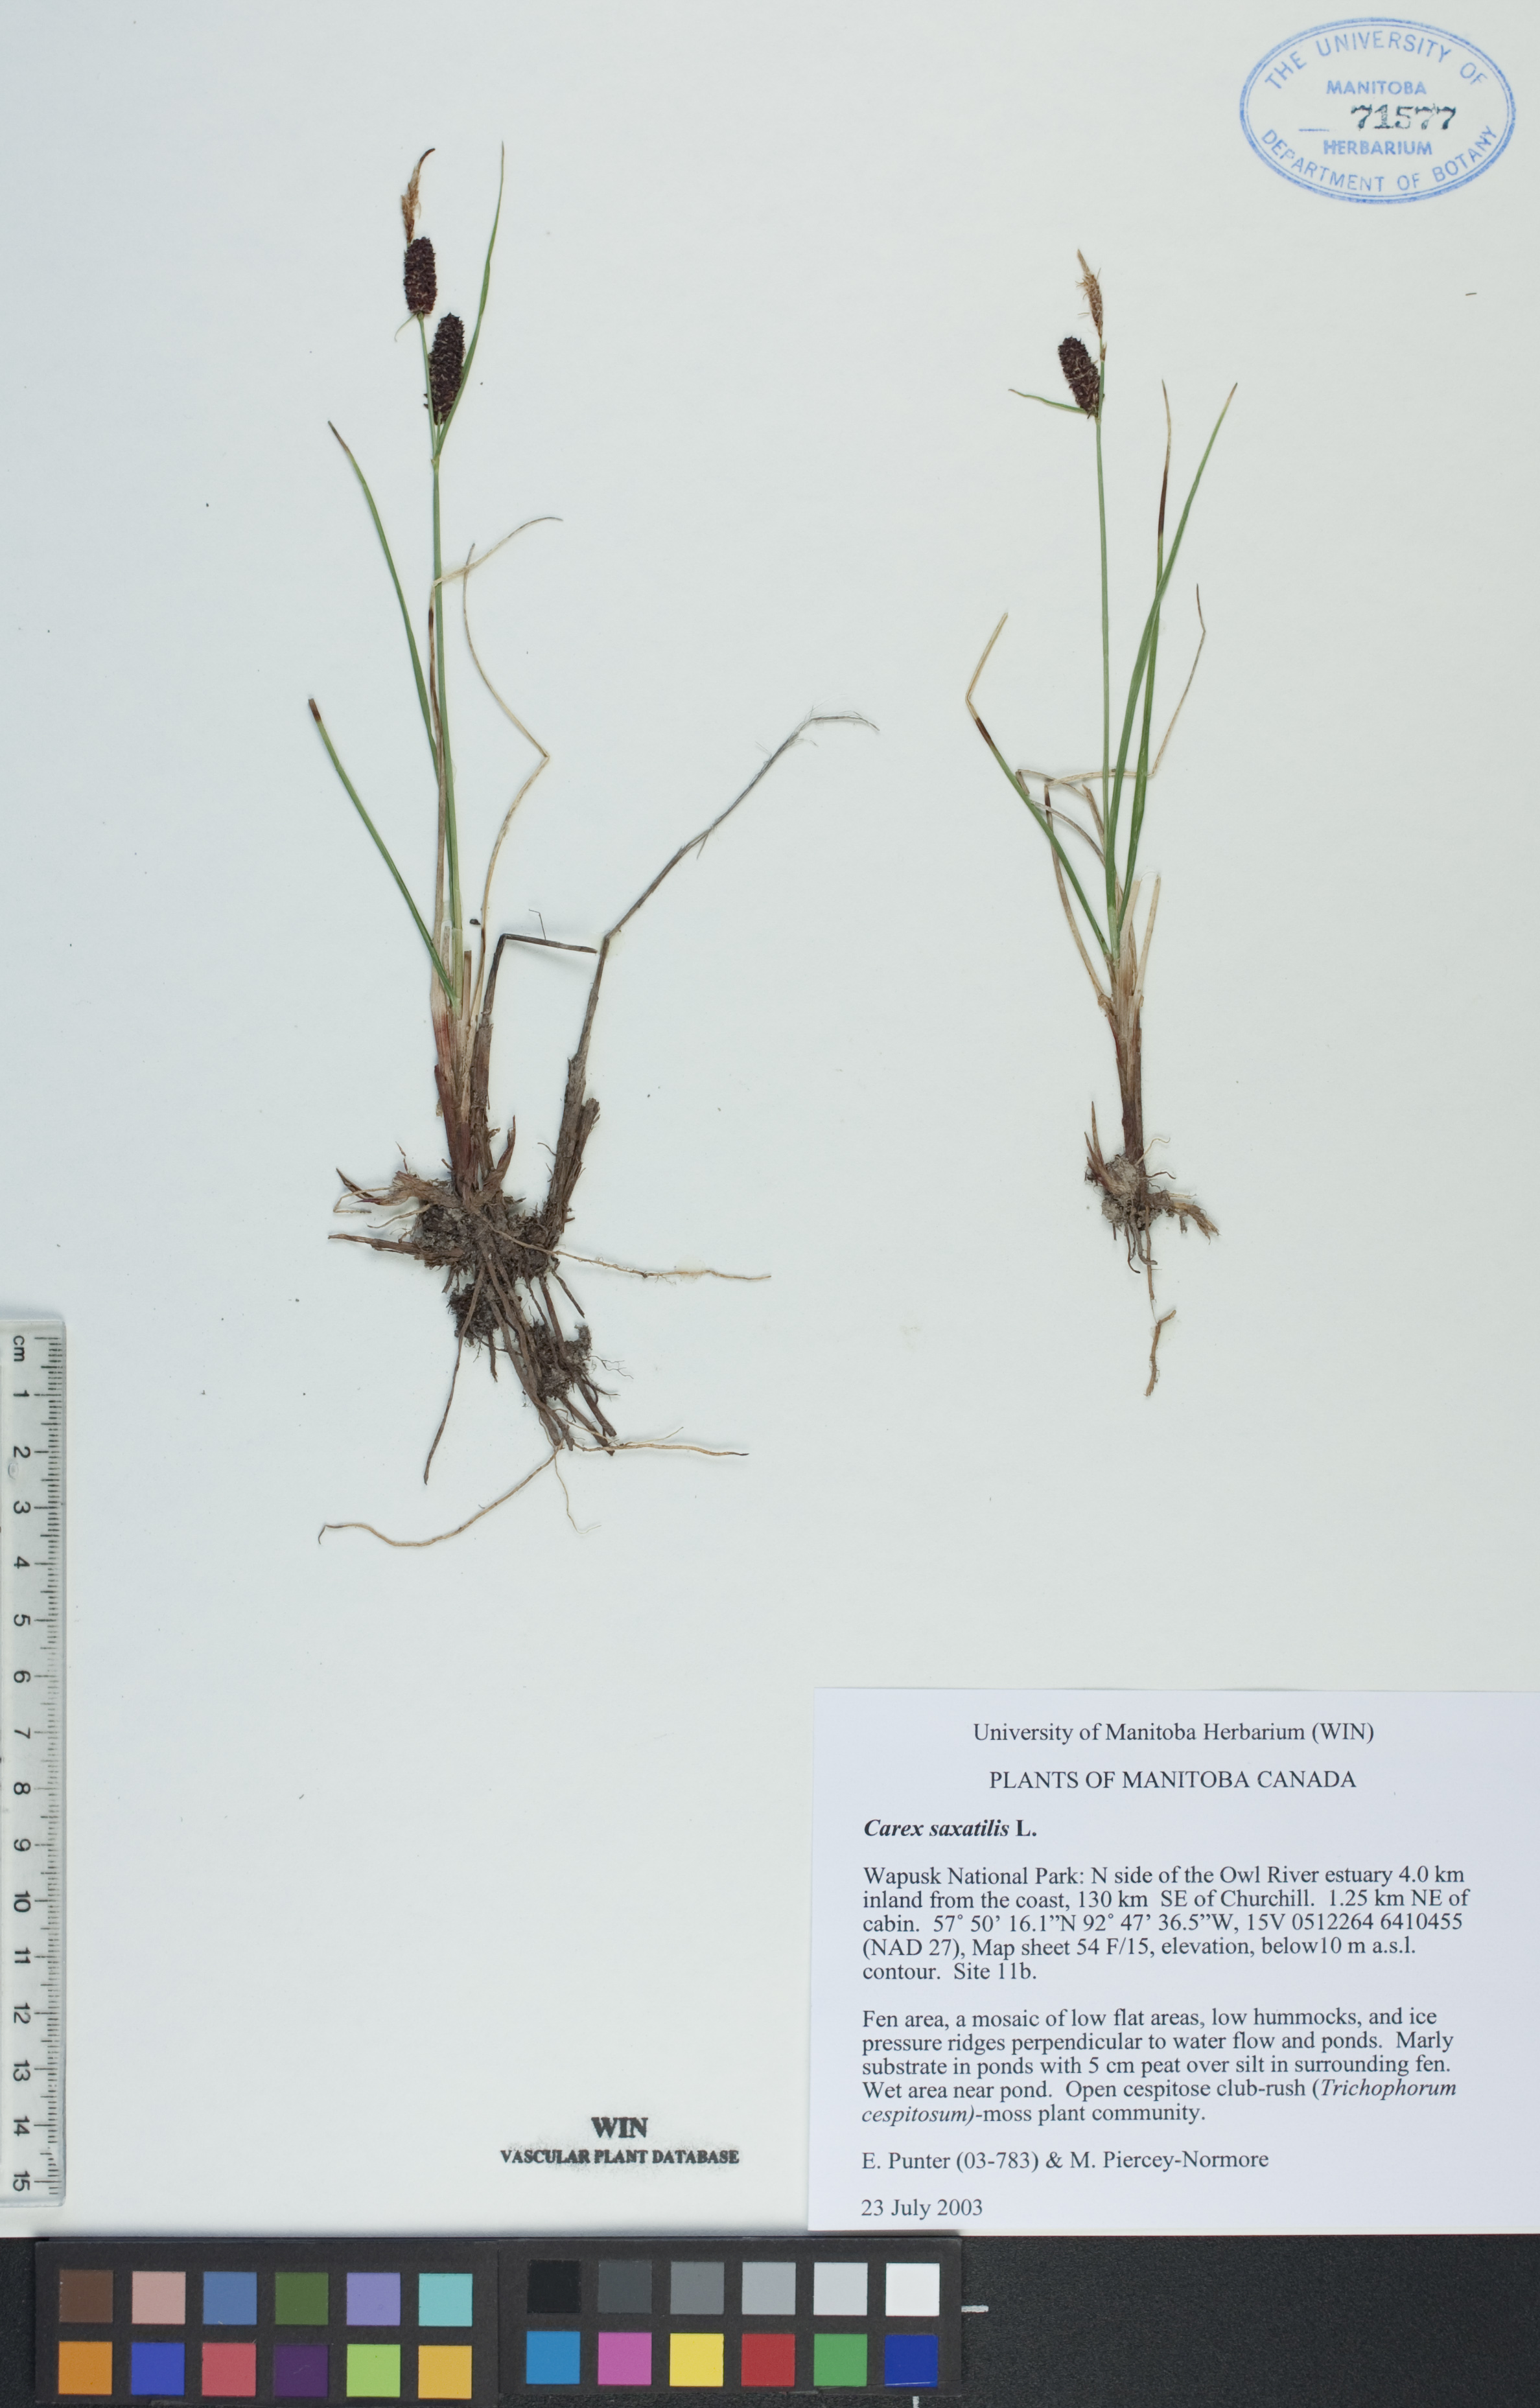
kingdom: Plantae
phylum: Tracheophyta
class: Liliopsida
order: Poales
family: Cyperaceae
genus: Carex
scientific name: Carex saxatilis
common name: Russet sedge
